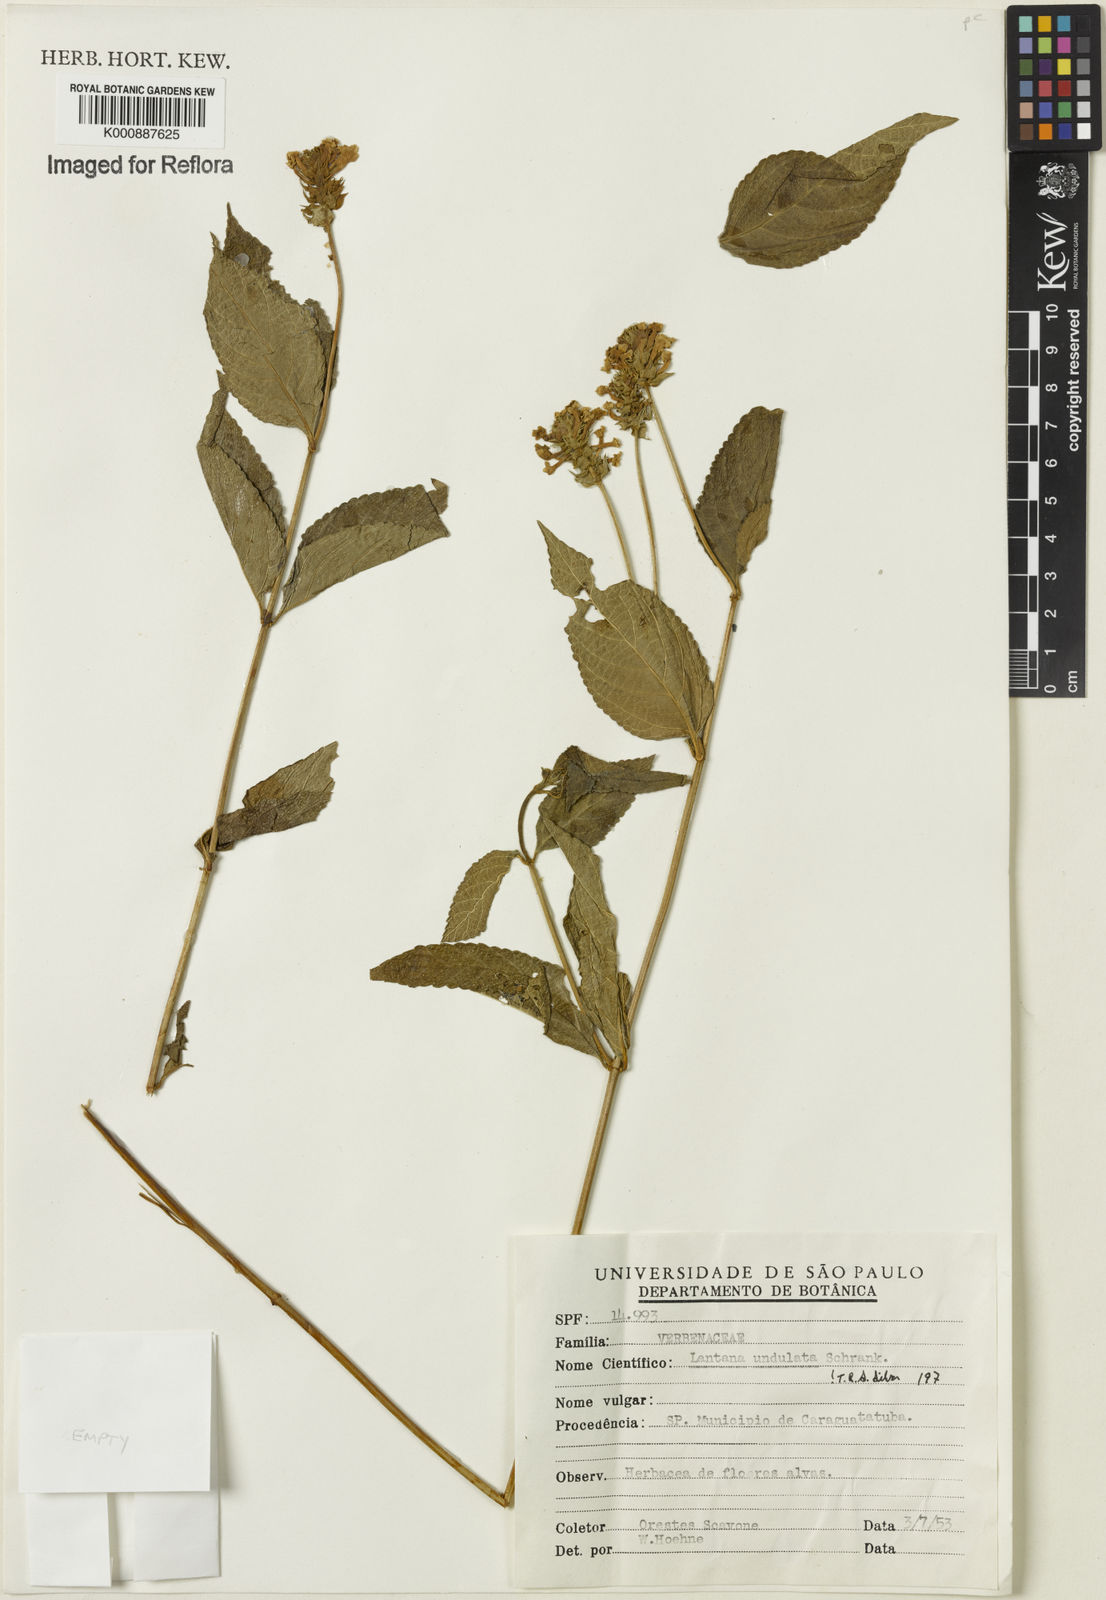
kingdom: Plantae
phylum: Tracheophyta
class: Magnoliopsida
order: Lamiales
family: Verbenaceae
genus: Lantana
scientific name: Lantana undulata
